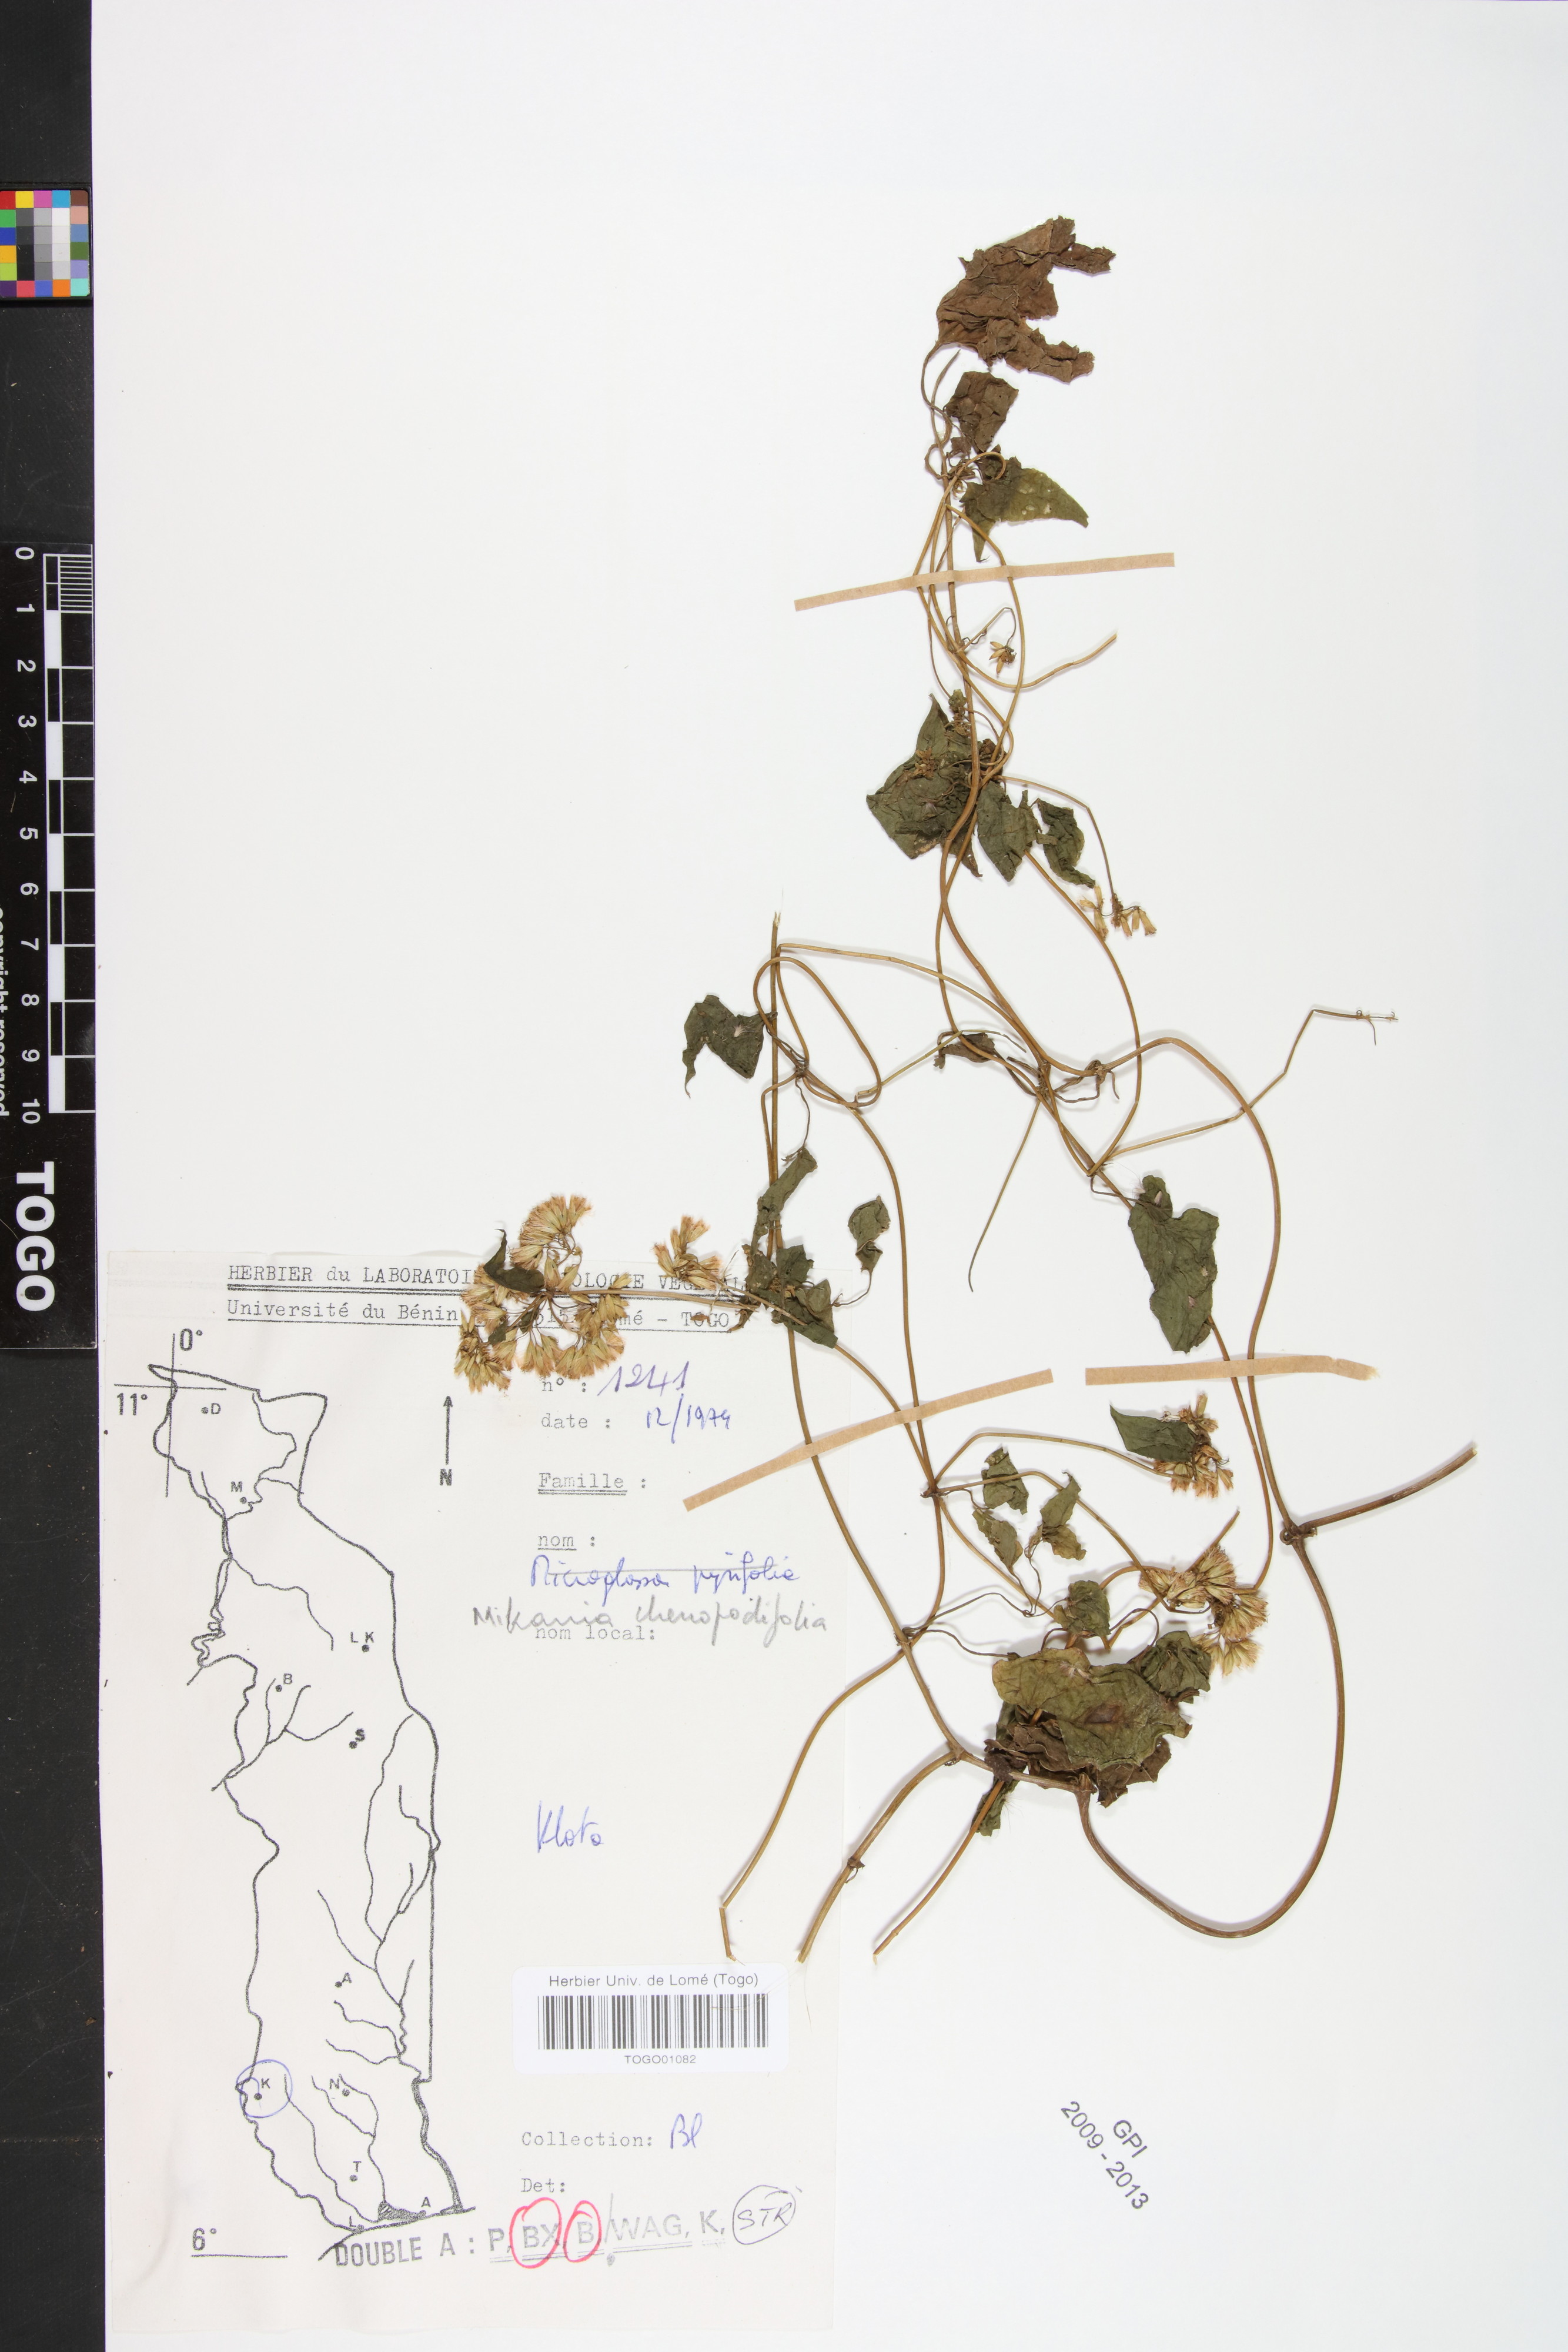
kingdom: Plantae
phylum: Tracheophyta
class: Magnoliopsida
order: Asterales
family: Asteraceae
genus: Mikania
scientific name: Mikania chenopodifolia
